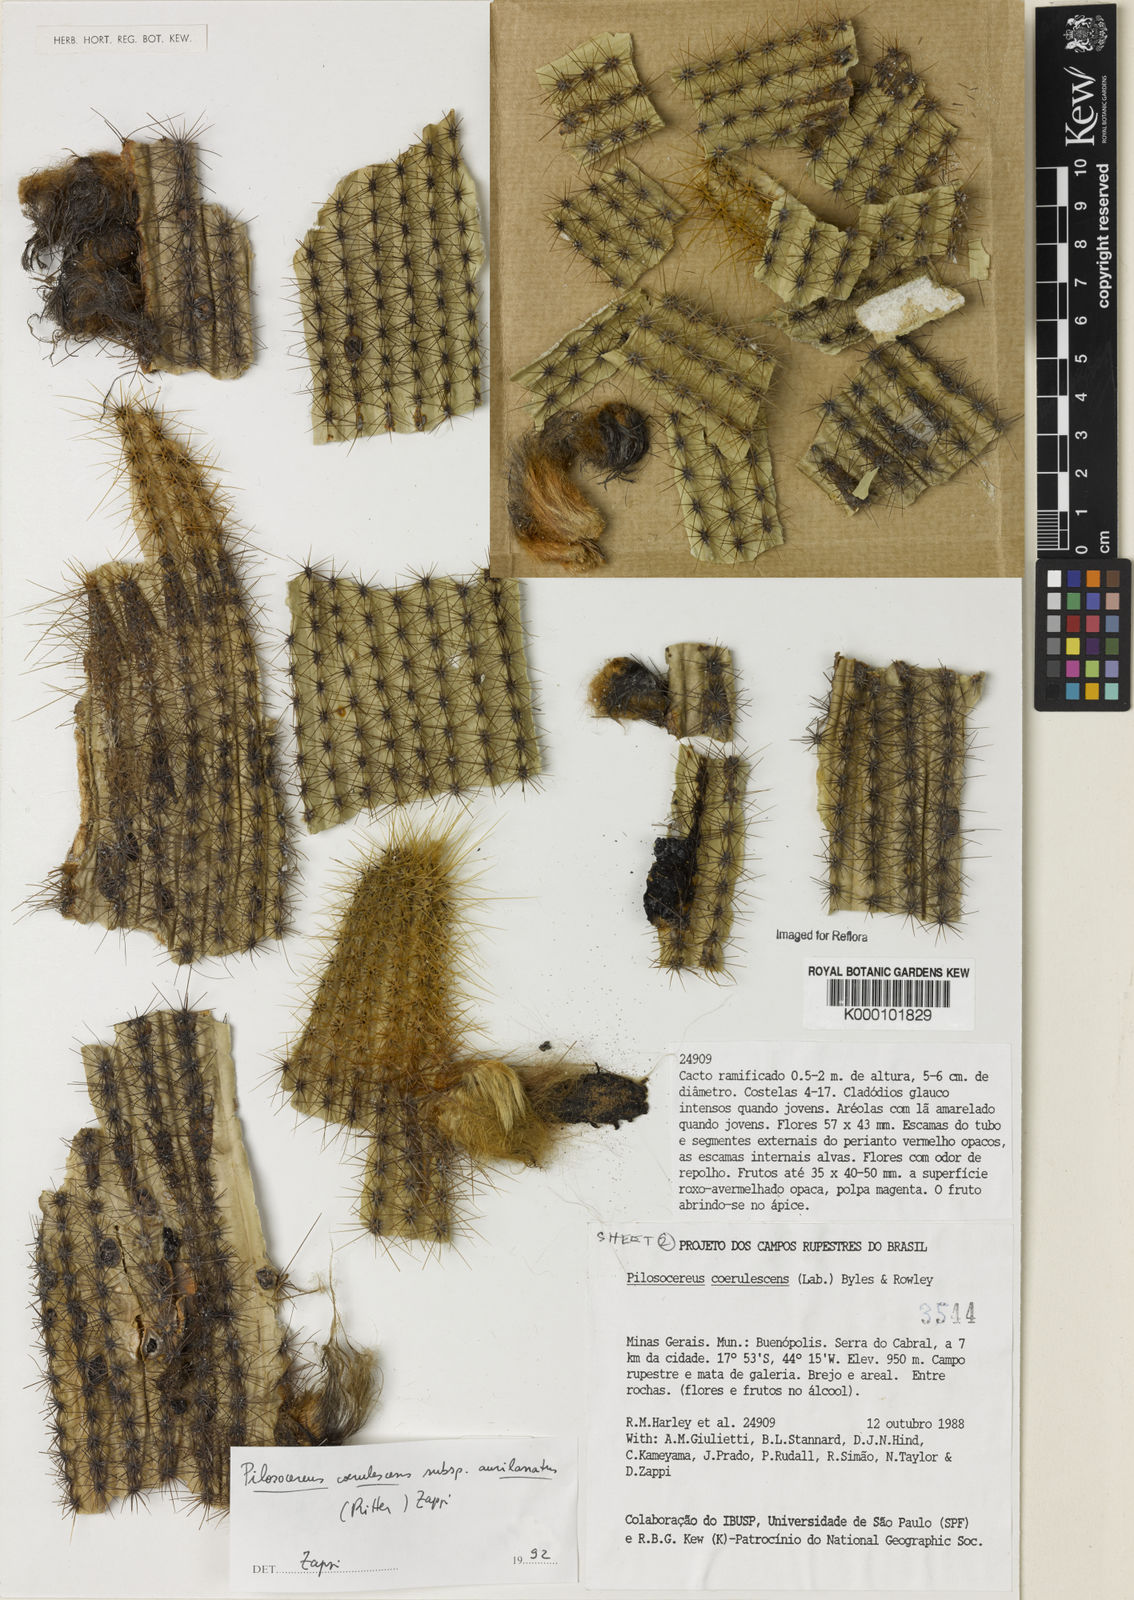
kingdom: Plantae
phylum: Tracheophyta
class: Magnoliopsida
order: Caryophyllales
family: Cactaceae
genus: Pilosocereus
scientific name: Pilosocereus aurisetus
